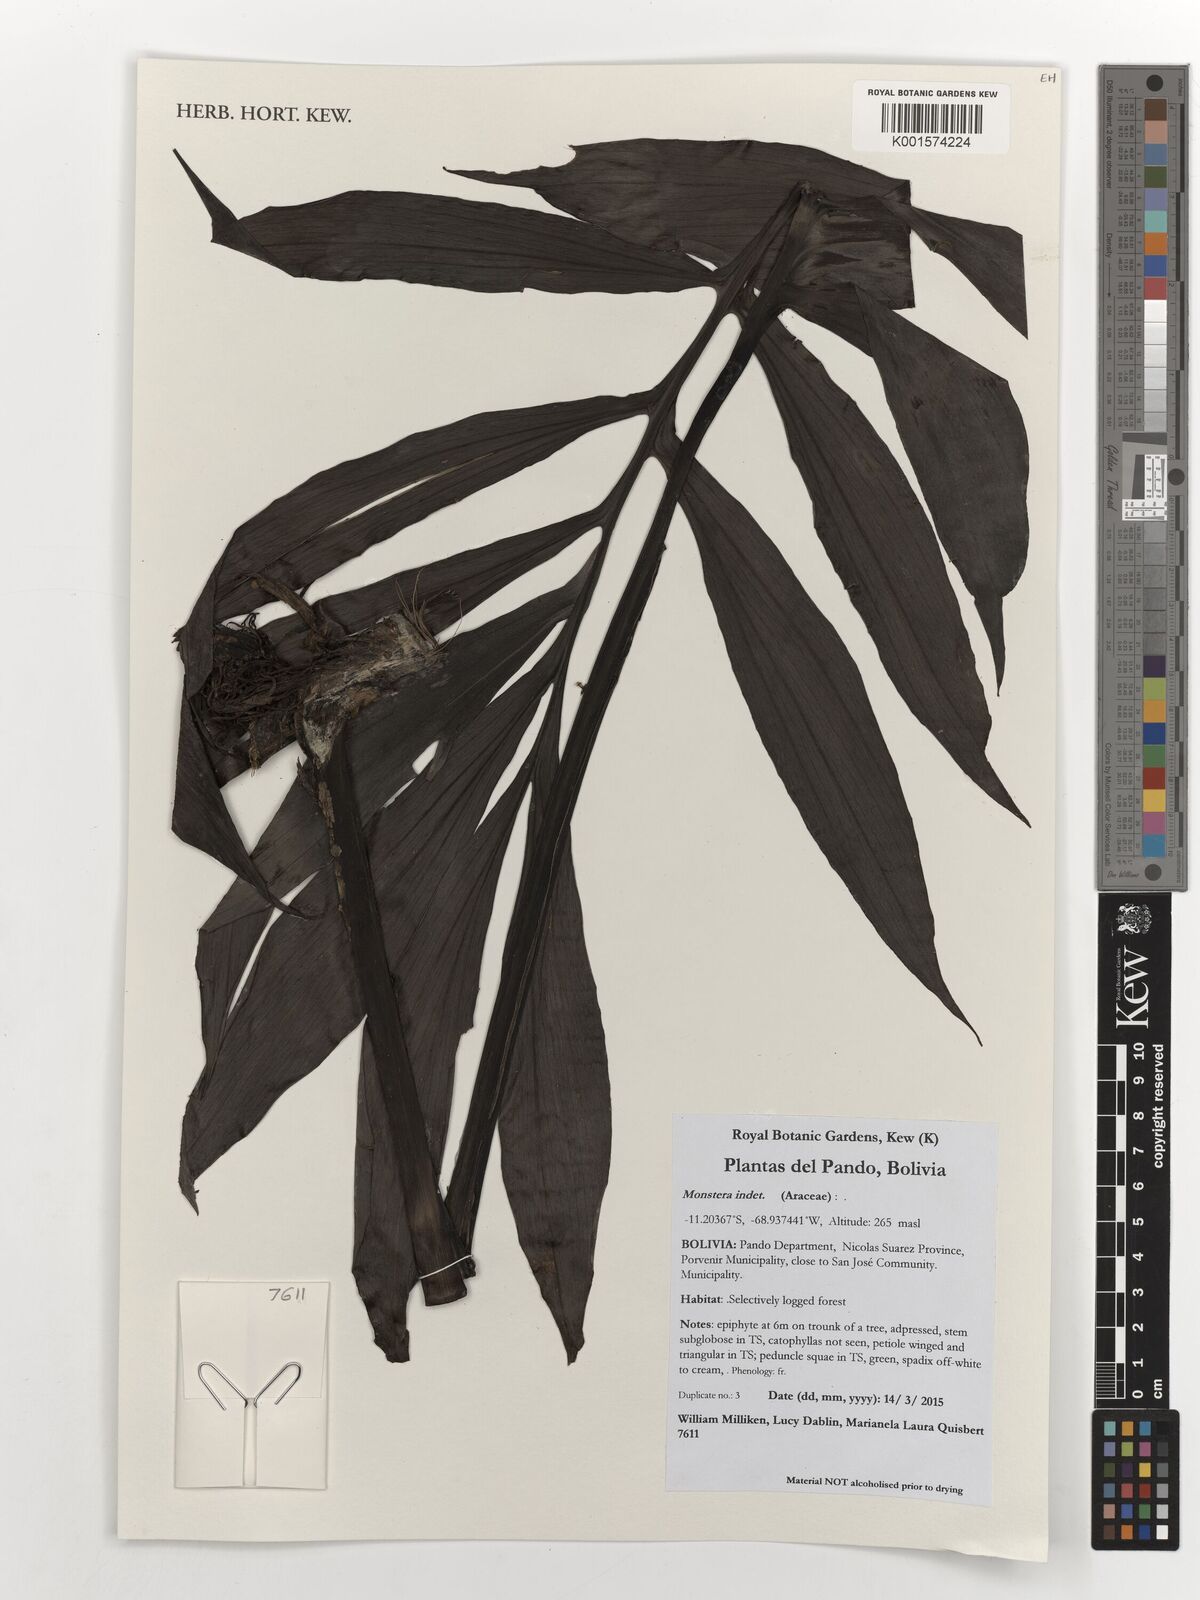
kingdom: Plantae
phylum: Tracheophyta
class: Liliopsida
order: Alismatales
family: Araceae
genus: Monstera
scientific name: Monstera
